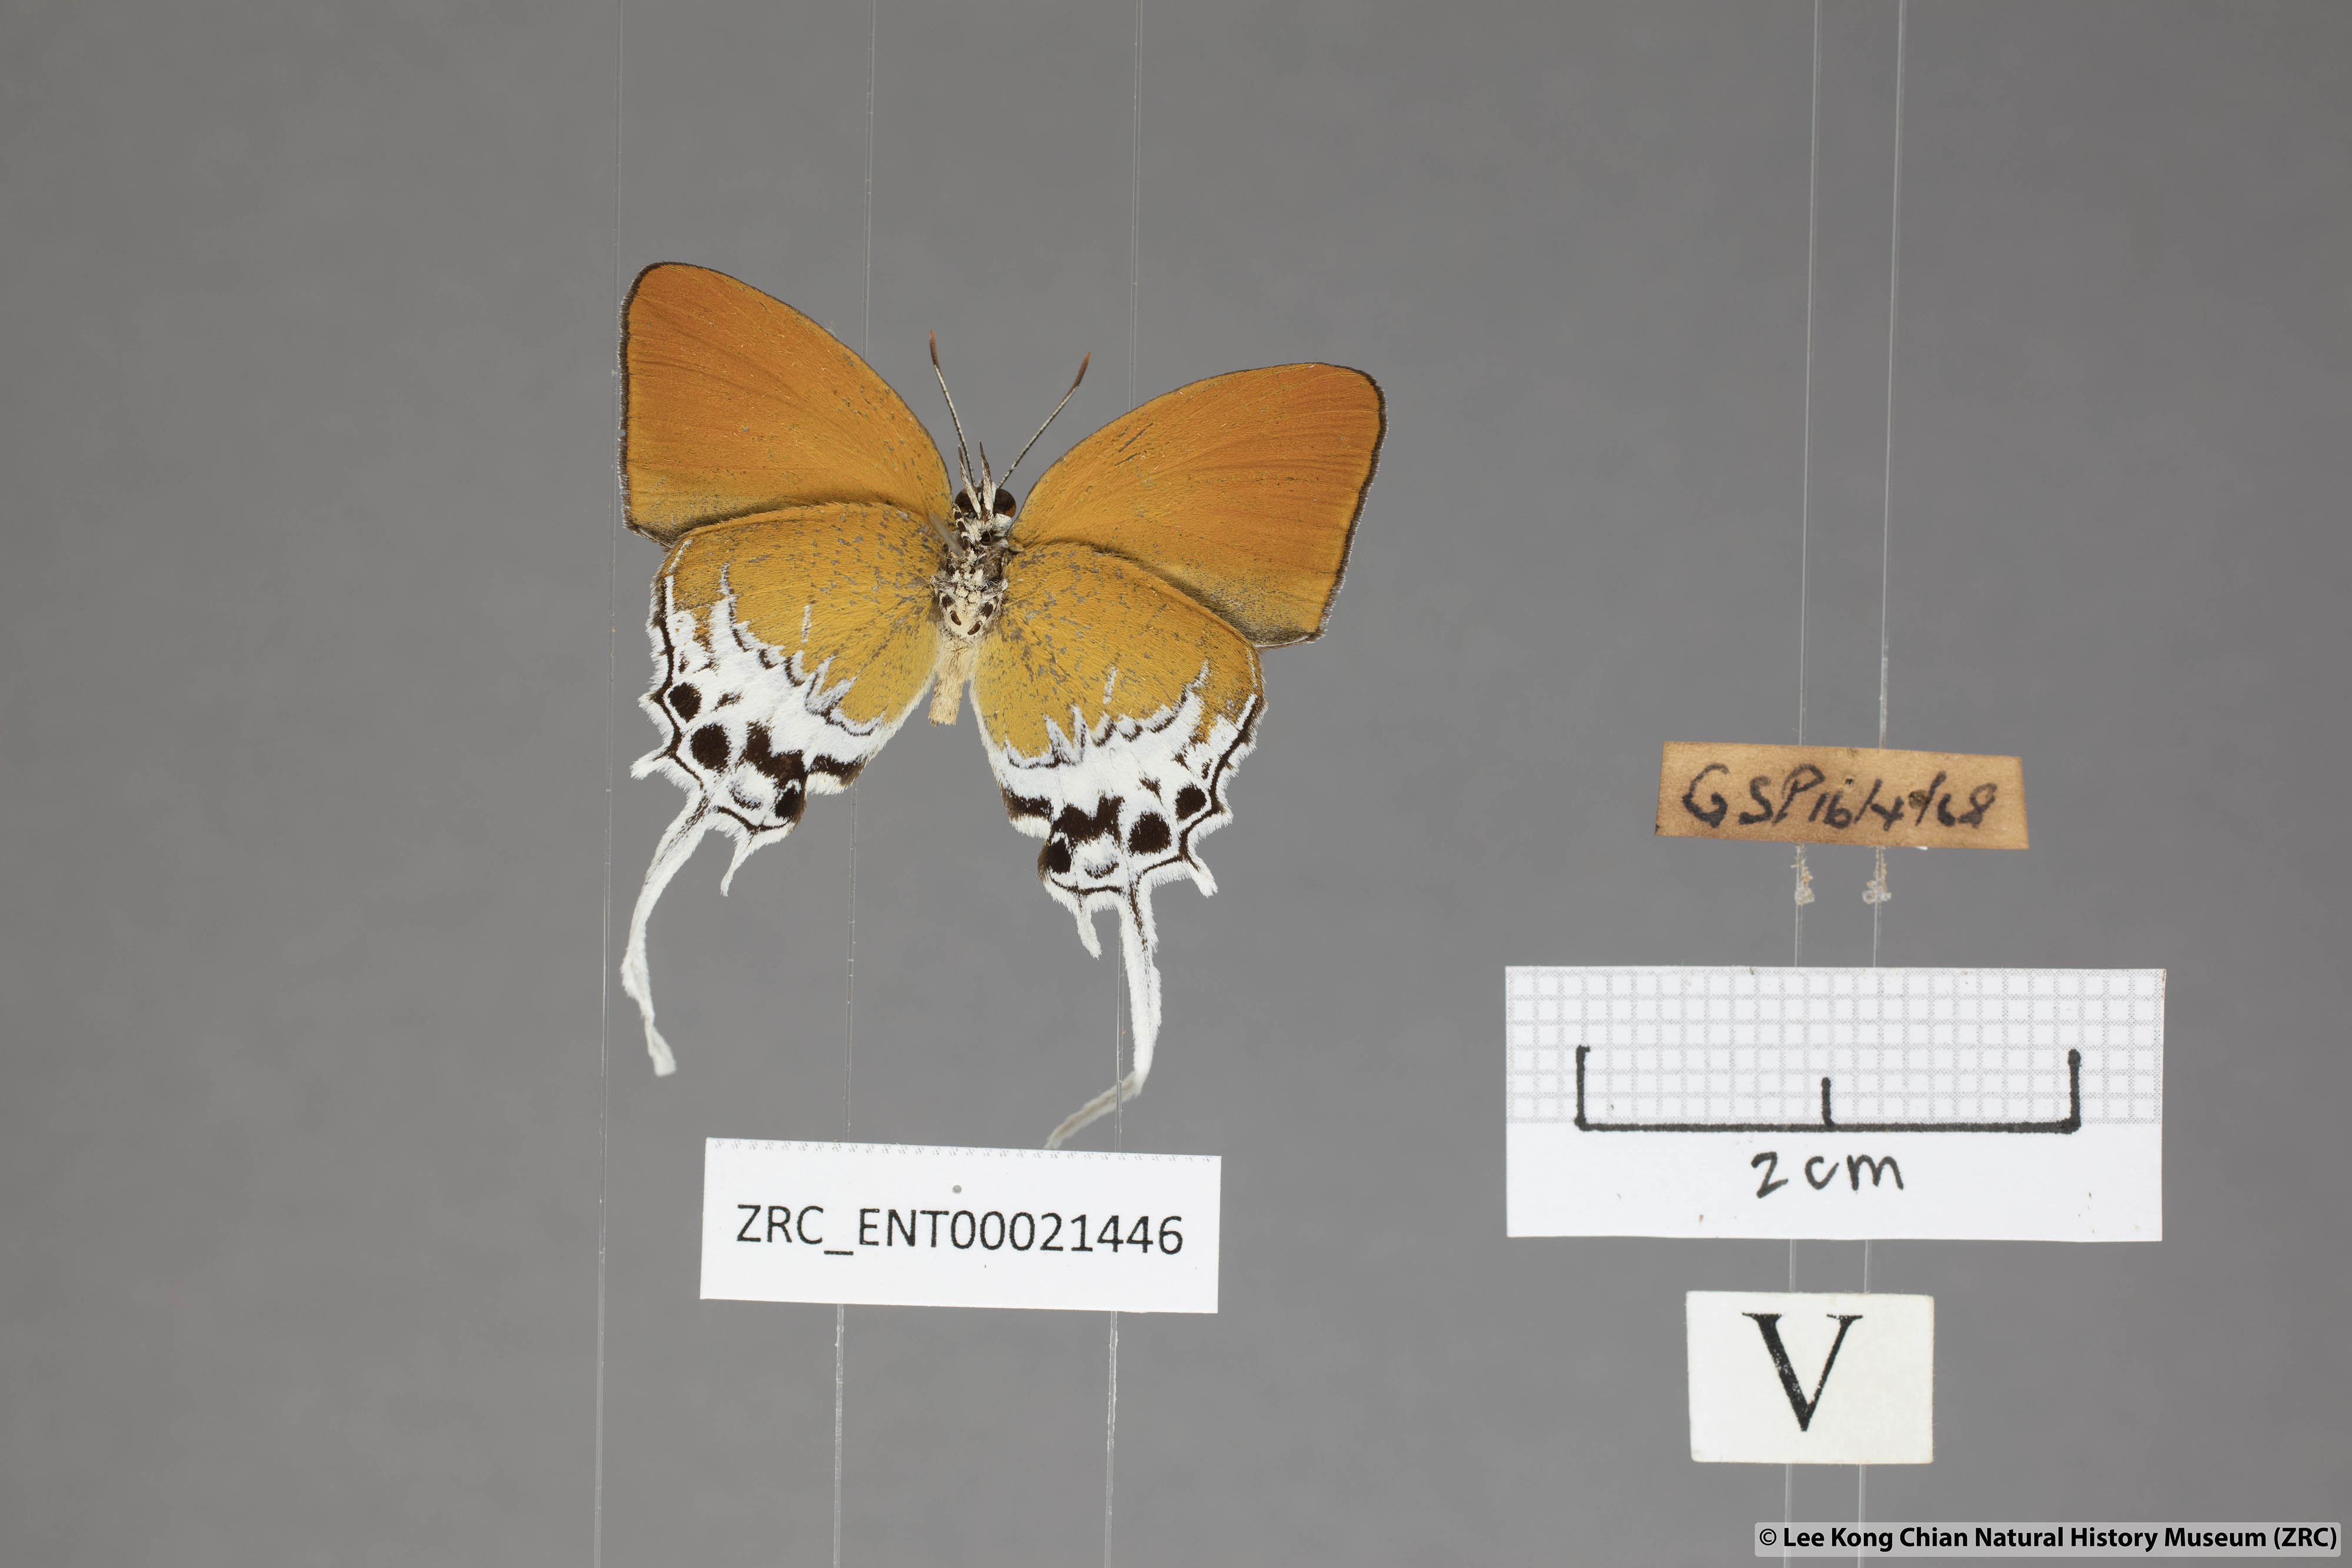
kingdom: Animalia
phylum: Arthropoda
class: Insecta
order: Lepidoptera
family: Lycaenidae
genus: Eooxylides
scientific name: Eooxylides tharis
